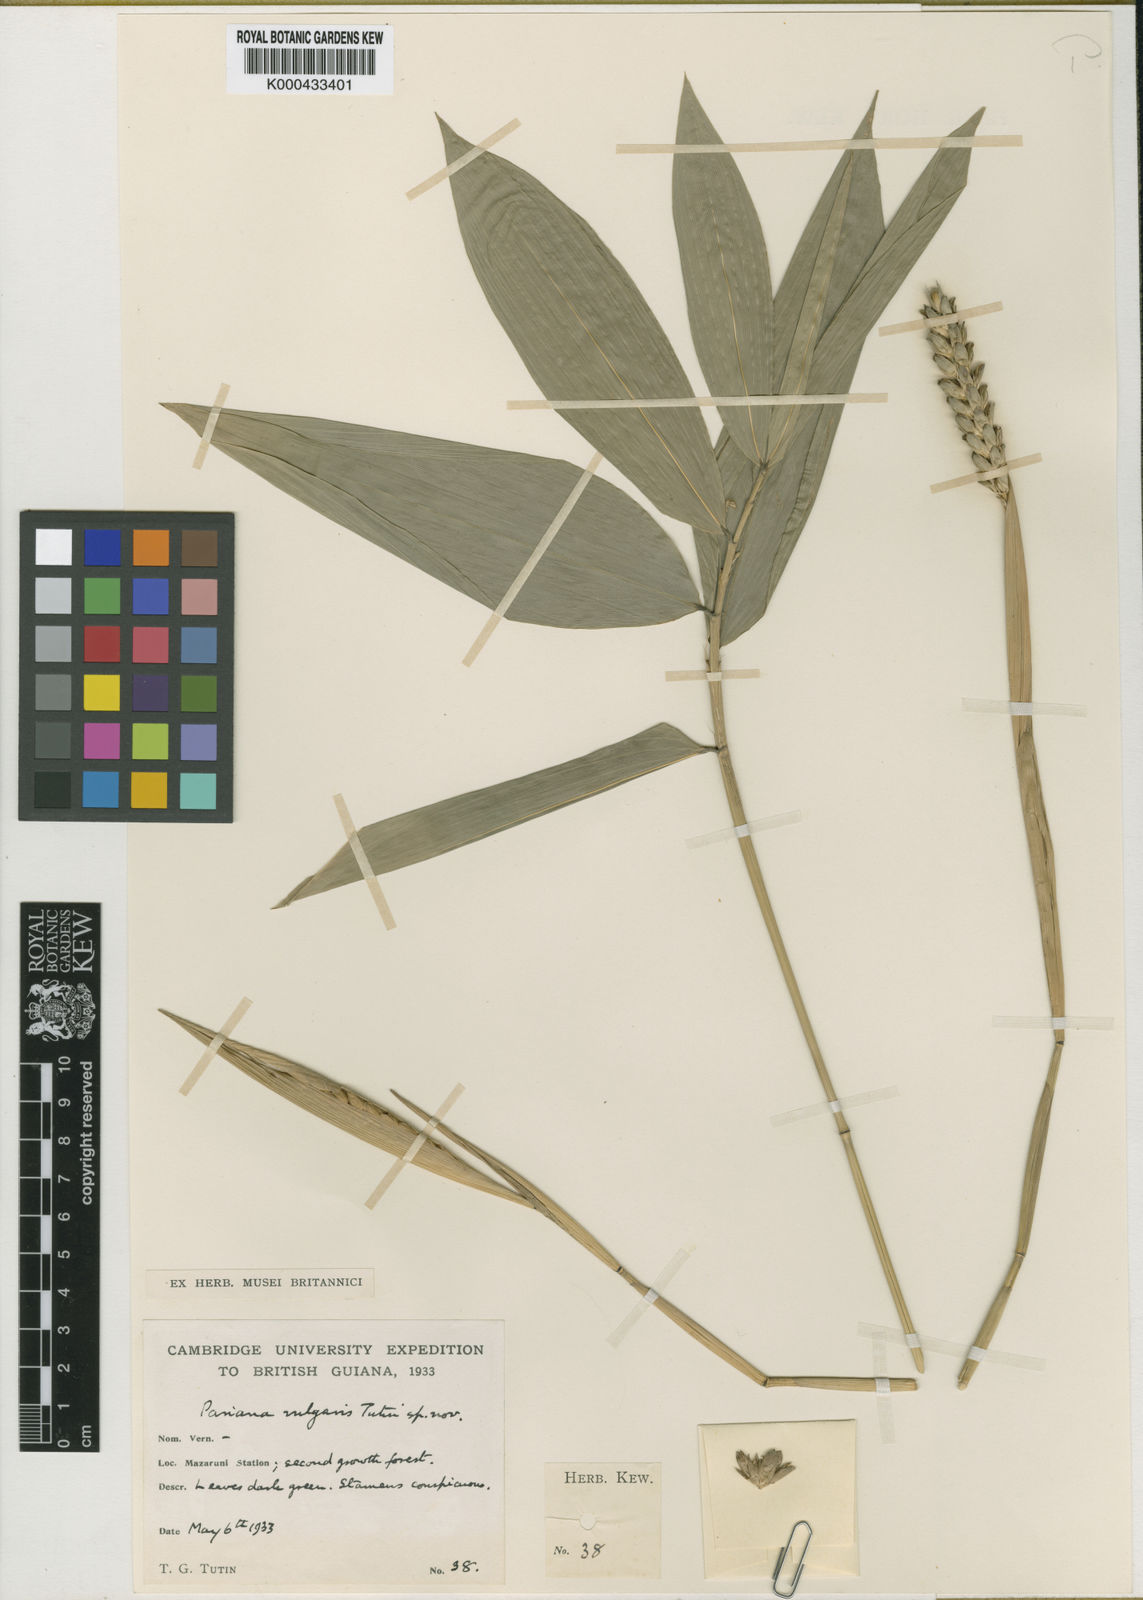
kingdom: Plantae
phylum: Tracheophyta
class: Liliopsida
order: Poales
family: Poaceae
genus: Pariana
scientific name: Pariana vulgaris
